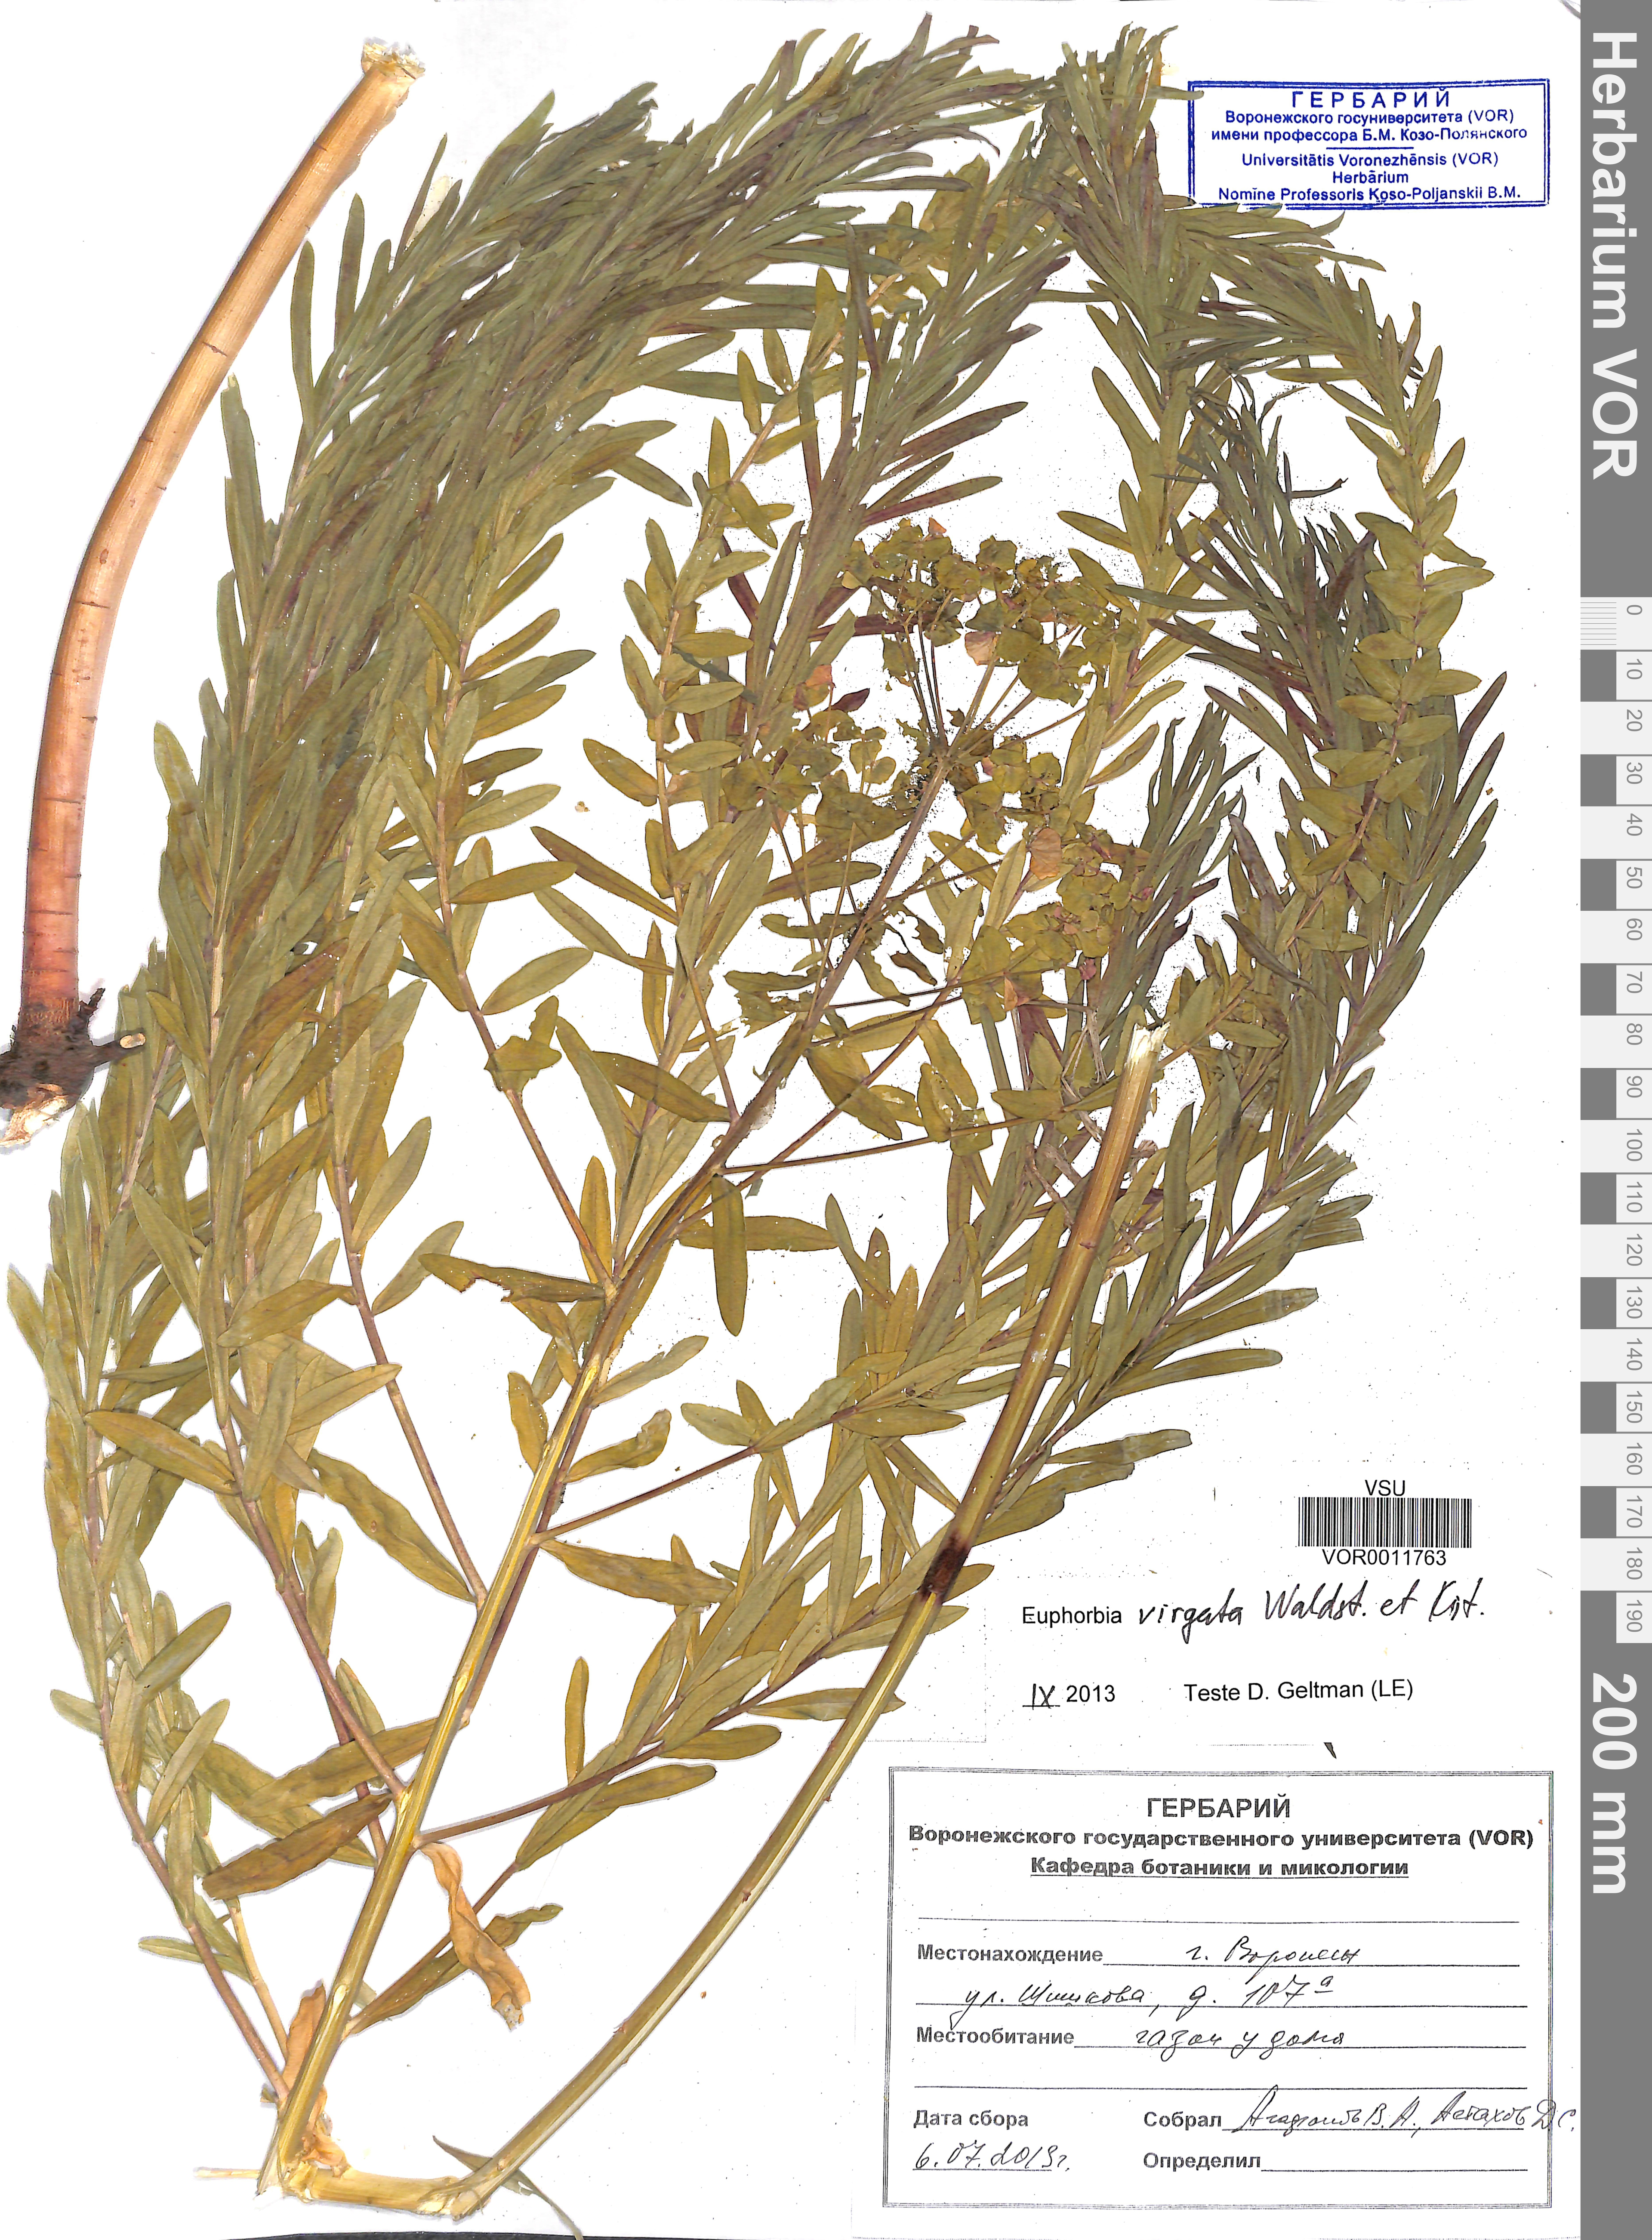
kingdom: Plantae
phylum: Tracheophyta
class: Magnoliopsida
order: Malpighiales
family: Euphorbiaceae
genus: Euphorbia
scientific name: Euphorbia virgata
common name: Leafy spurge
